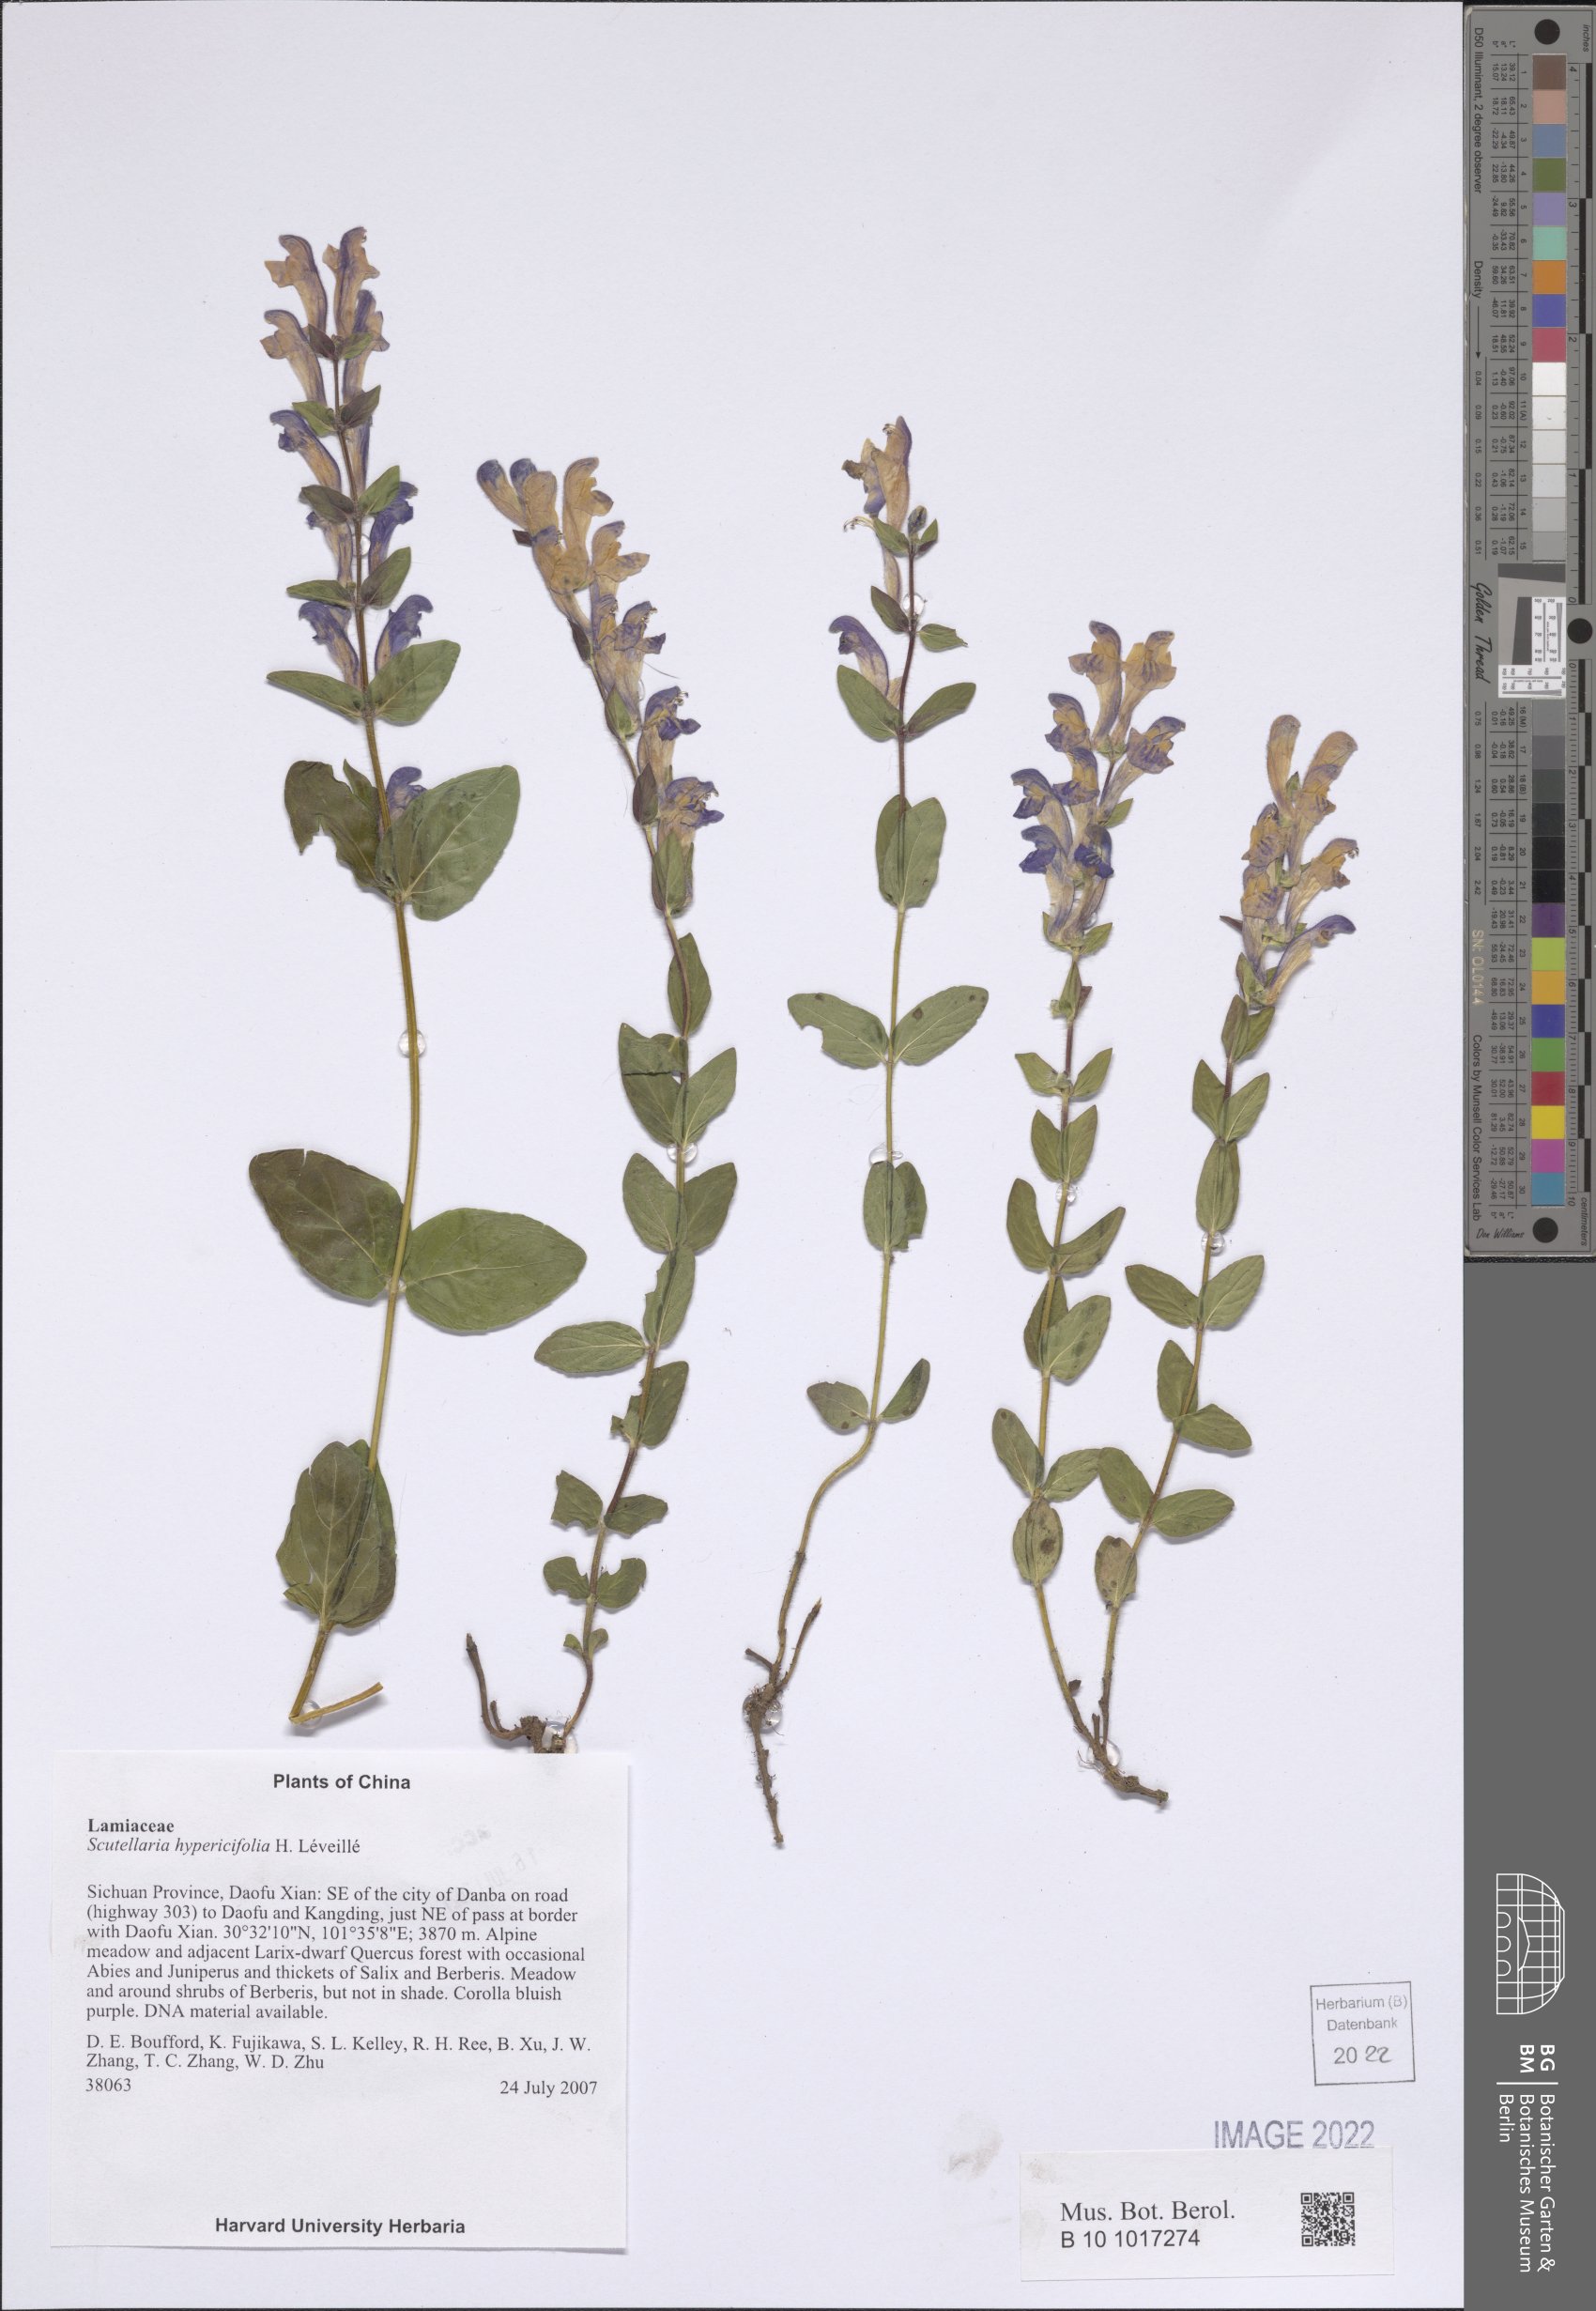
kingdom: Plantae
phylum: Tracheophyta
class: Magnoliopsida
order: Lamiales
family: Lamiaceae
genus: Scutellaria
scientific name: Scutellaria hypericifolia
